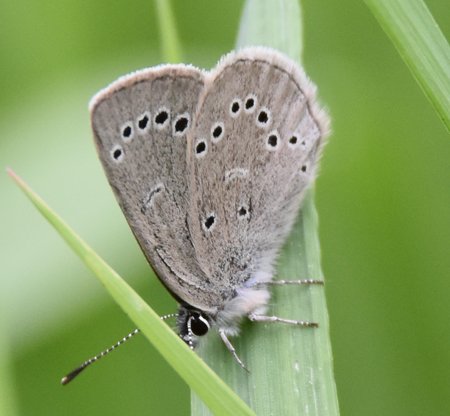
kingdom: Animalia
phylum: Arthropoda
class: Insecta
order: Lepidoptera
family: Lycaenidae
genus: Glaucopsyche
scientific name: Glaucopsyche lygdamus
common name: Silvery Blue
